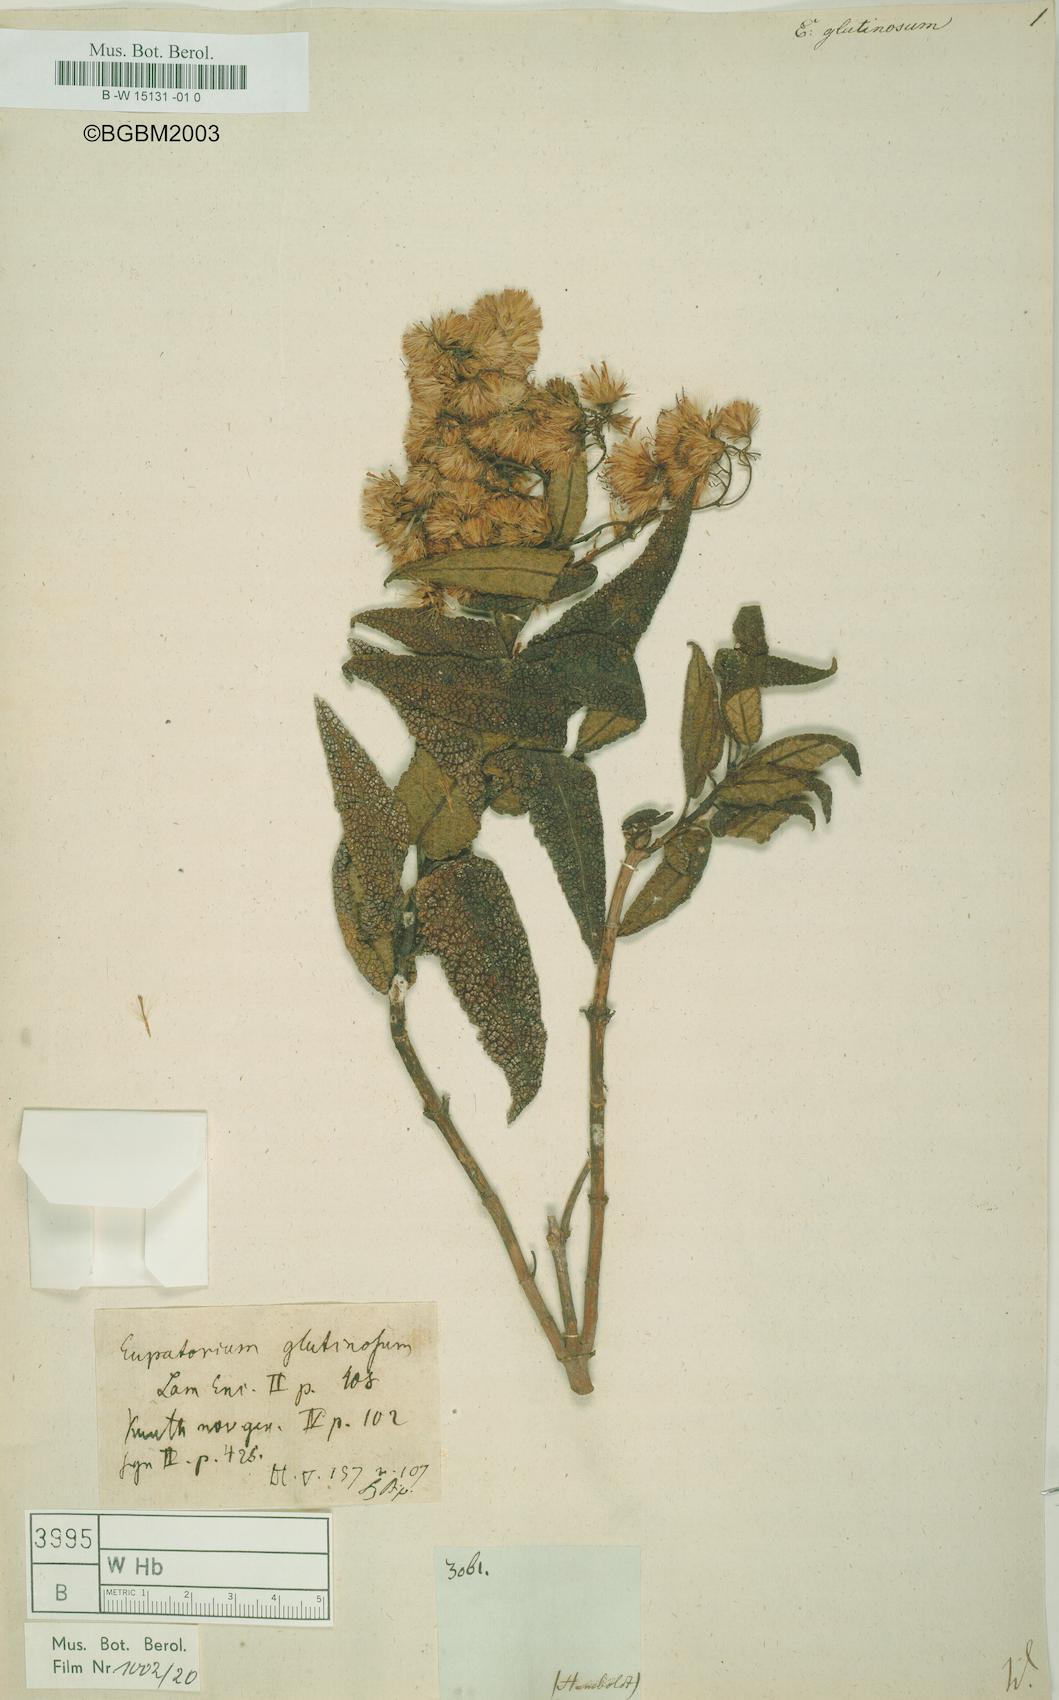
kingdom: Plantae
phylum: Tracheophyta
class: Magnoliopsida
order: Asterales
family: Asteraceae
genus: Aristeguietia
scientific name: Aristeguietia glutinosa
